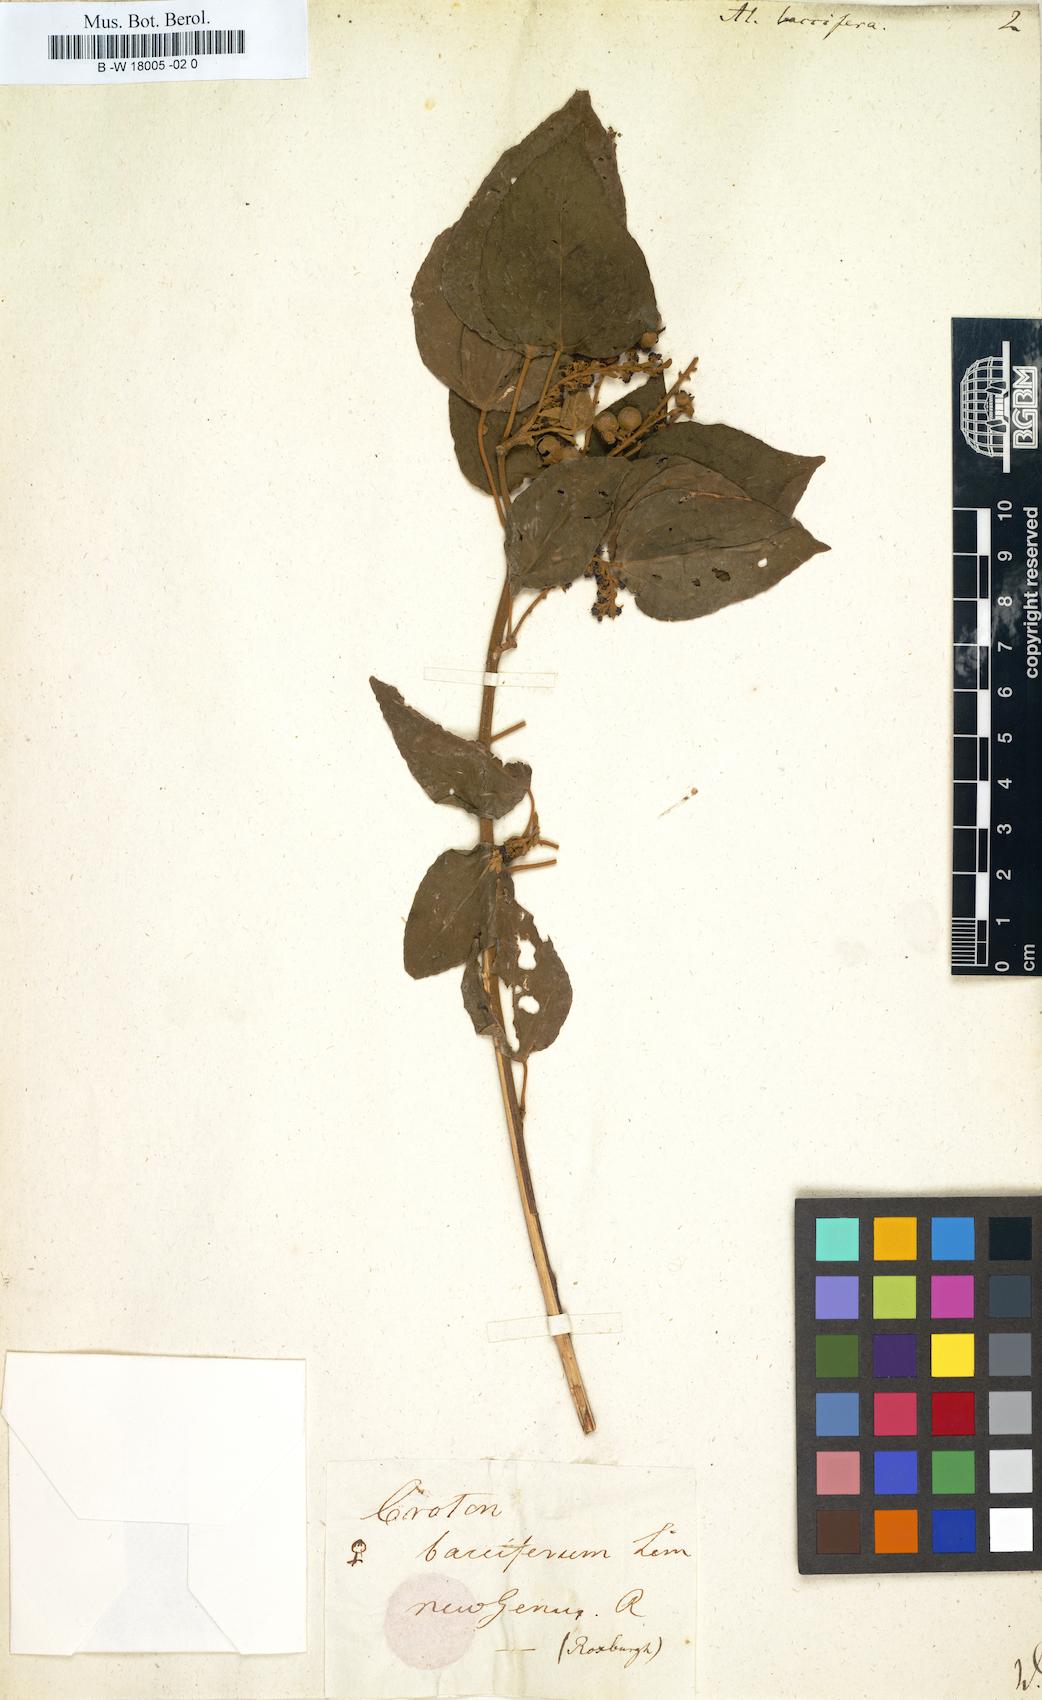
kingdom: Plantae
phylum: Tracheophyta
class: Magnoliopsida
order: Malpighiales
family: Euphorbiaceae
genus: Croton
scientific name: Croton aromaticus
